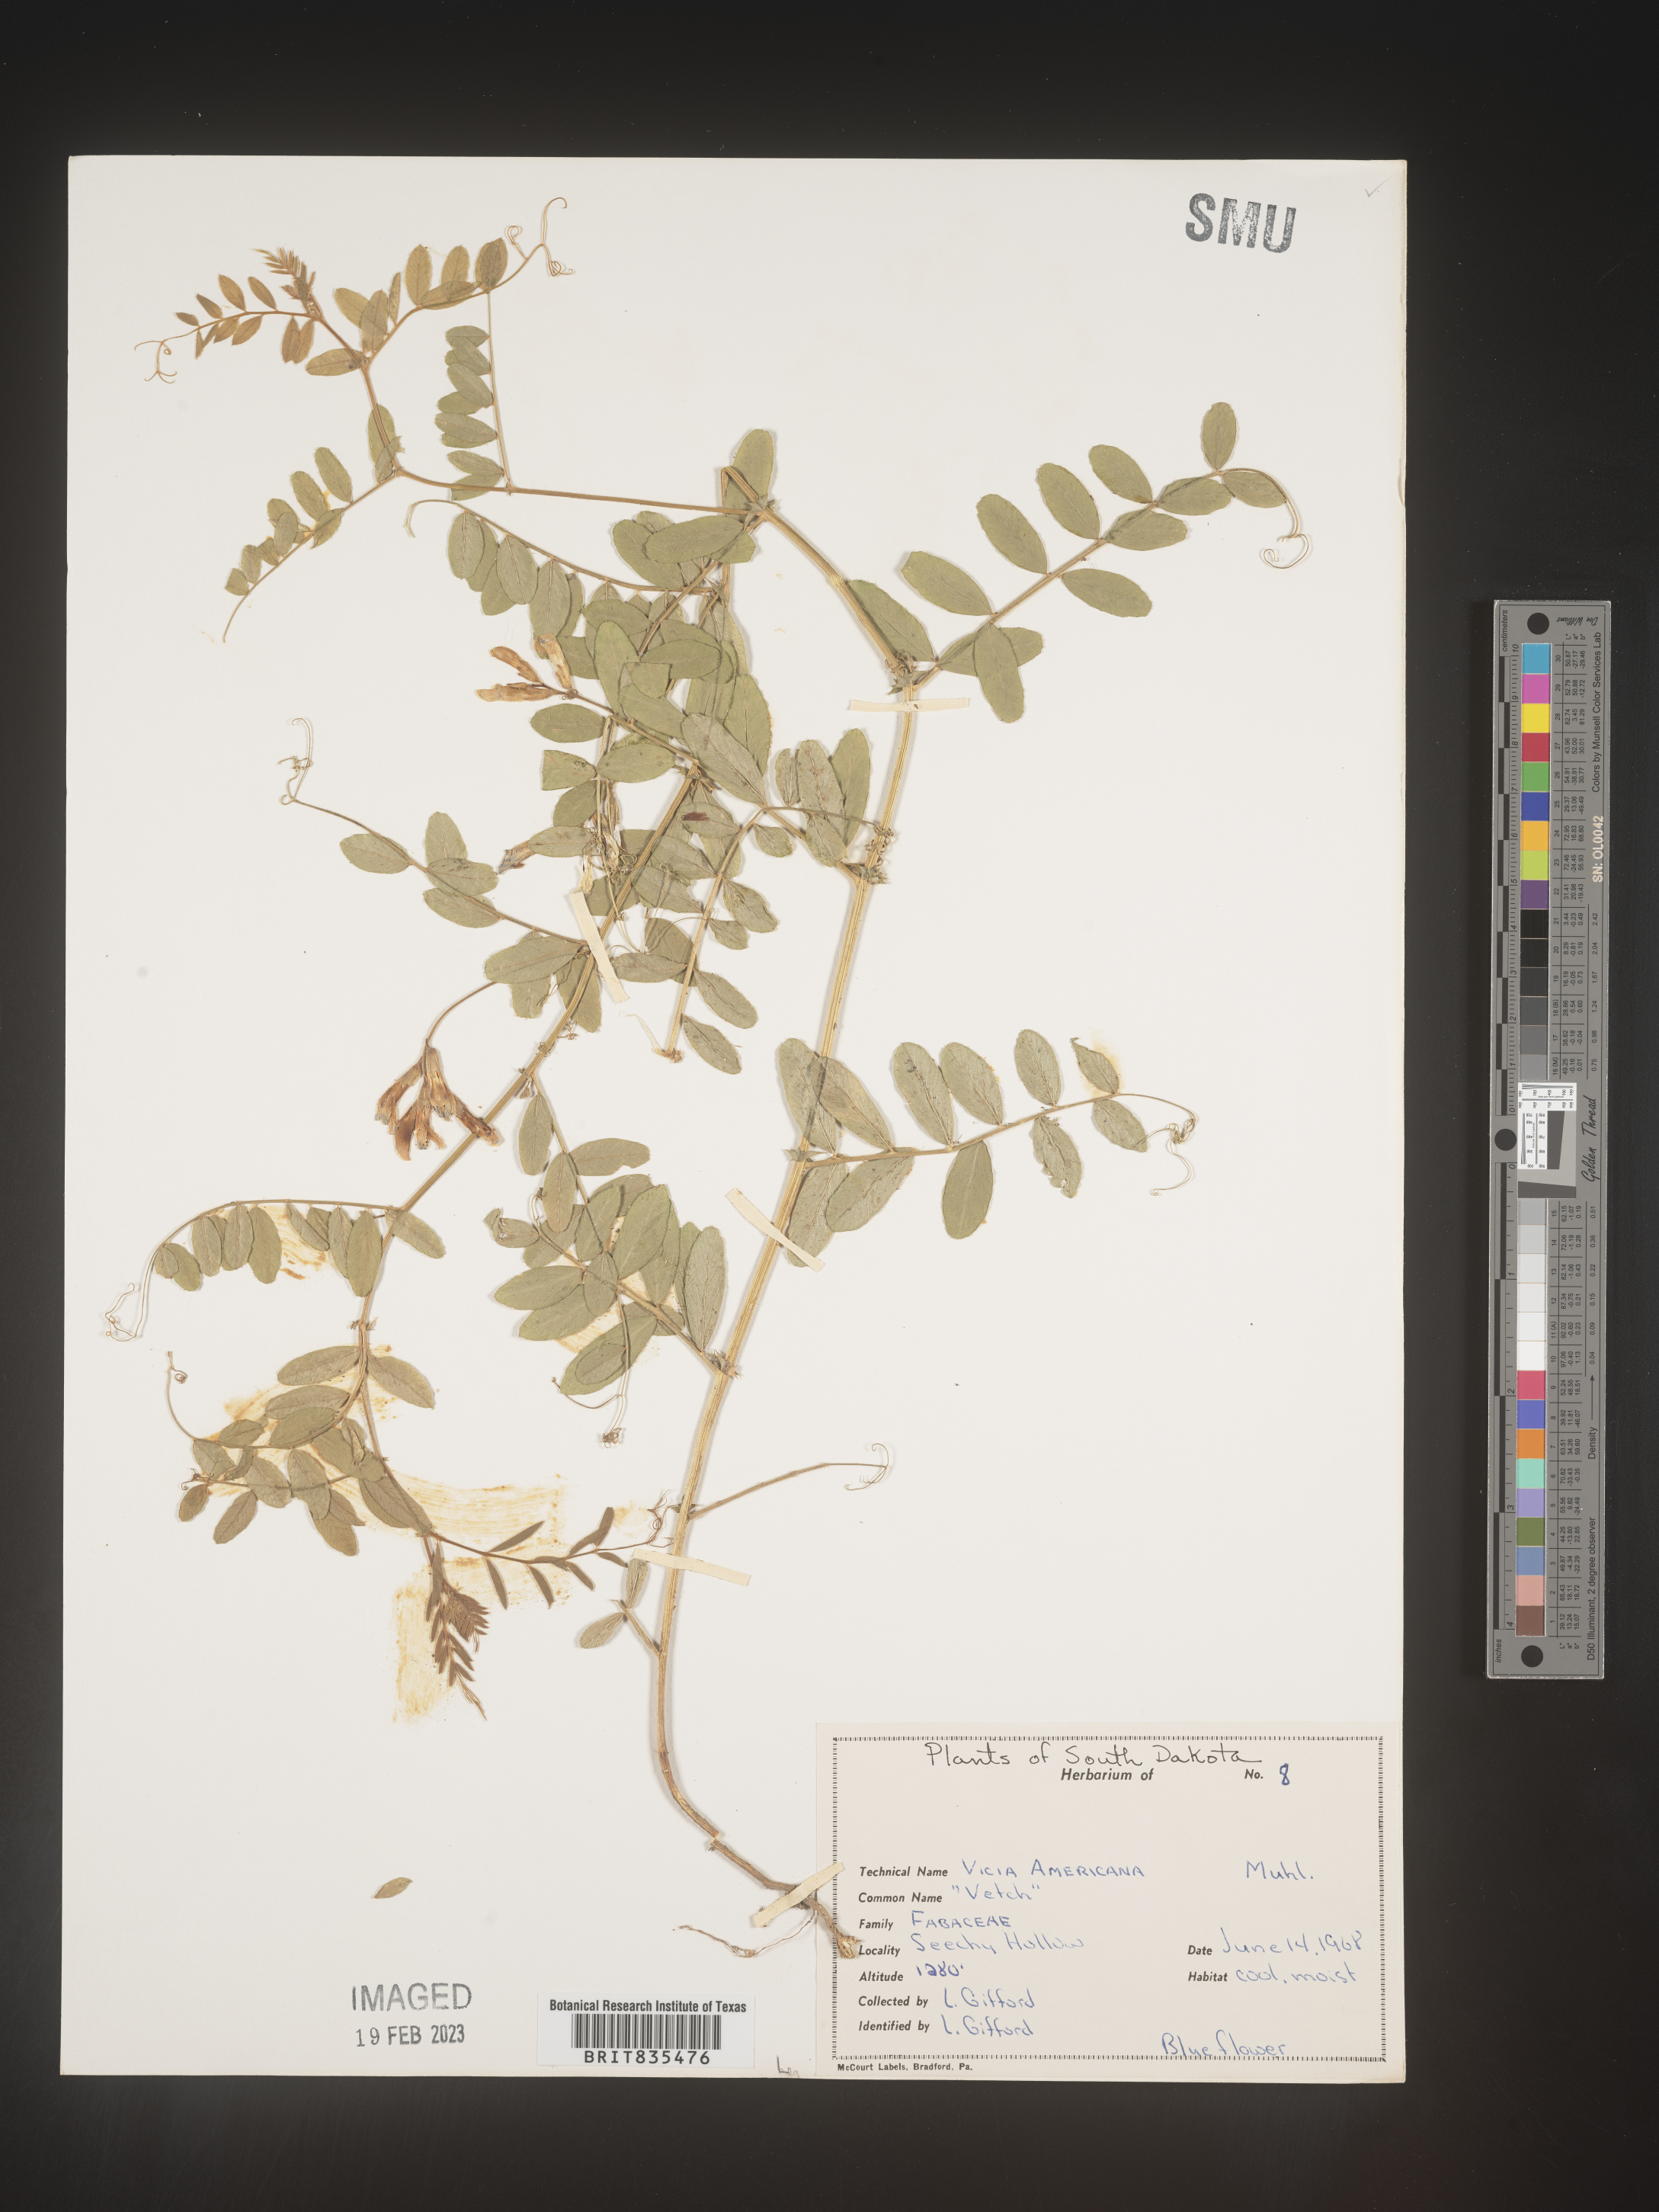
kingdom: Plantae
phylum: Tracheophyta
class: Magnoliopsida
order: Fabales
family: Fabaceae
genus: Vicia
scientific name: Vicia americana
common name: American vetch
